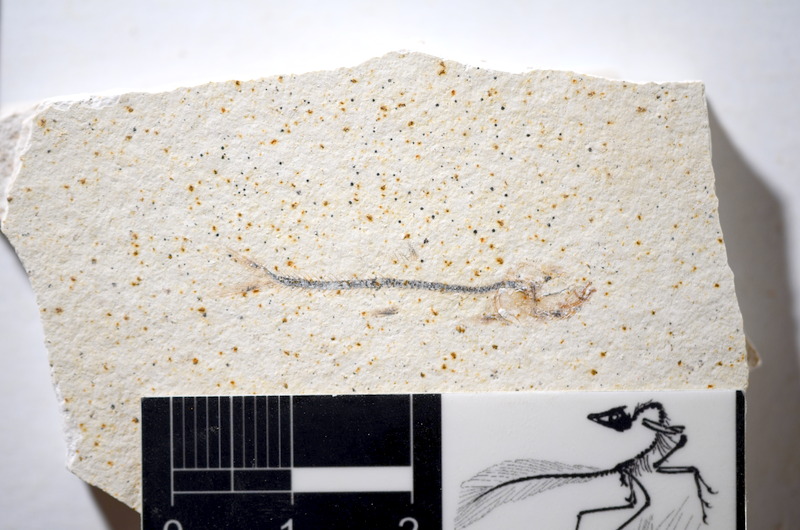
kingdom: Animalia
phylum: Chordata
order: Salmoniformes
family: Orthogonikleithridae
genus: Orthogonikleithrus
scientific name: Orthogonikleithrus hoelli
